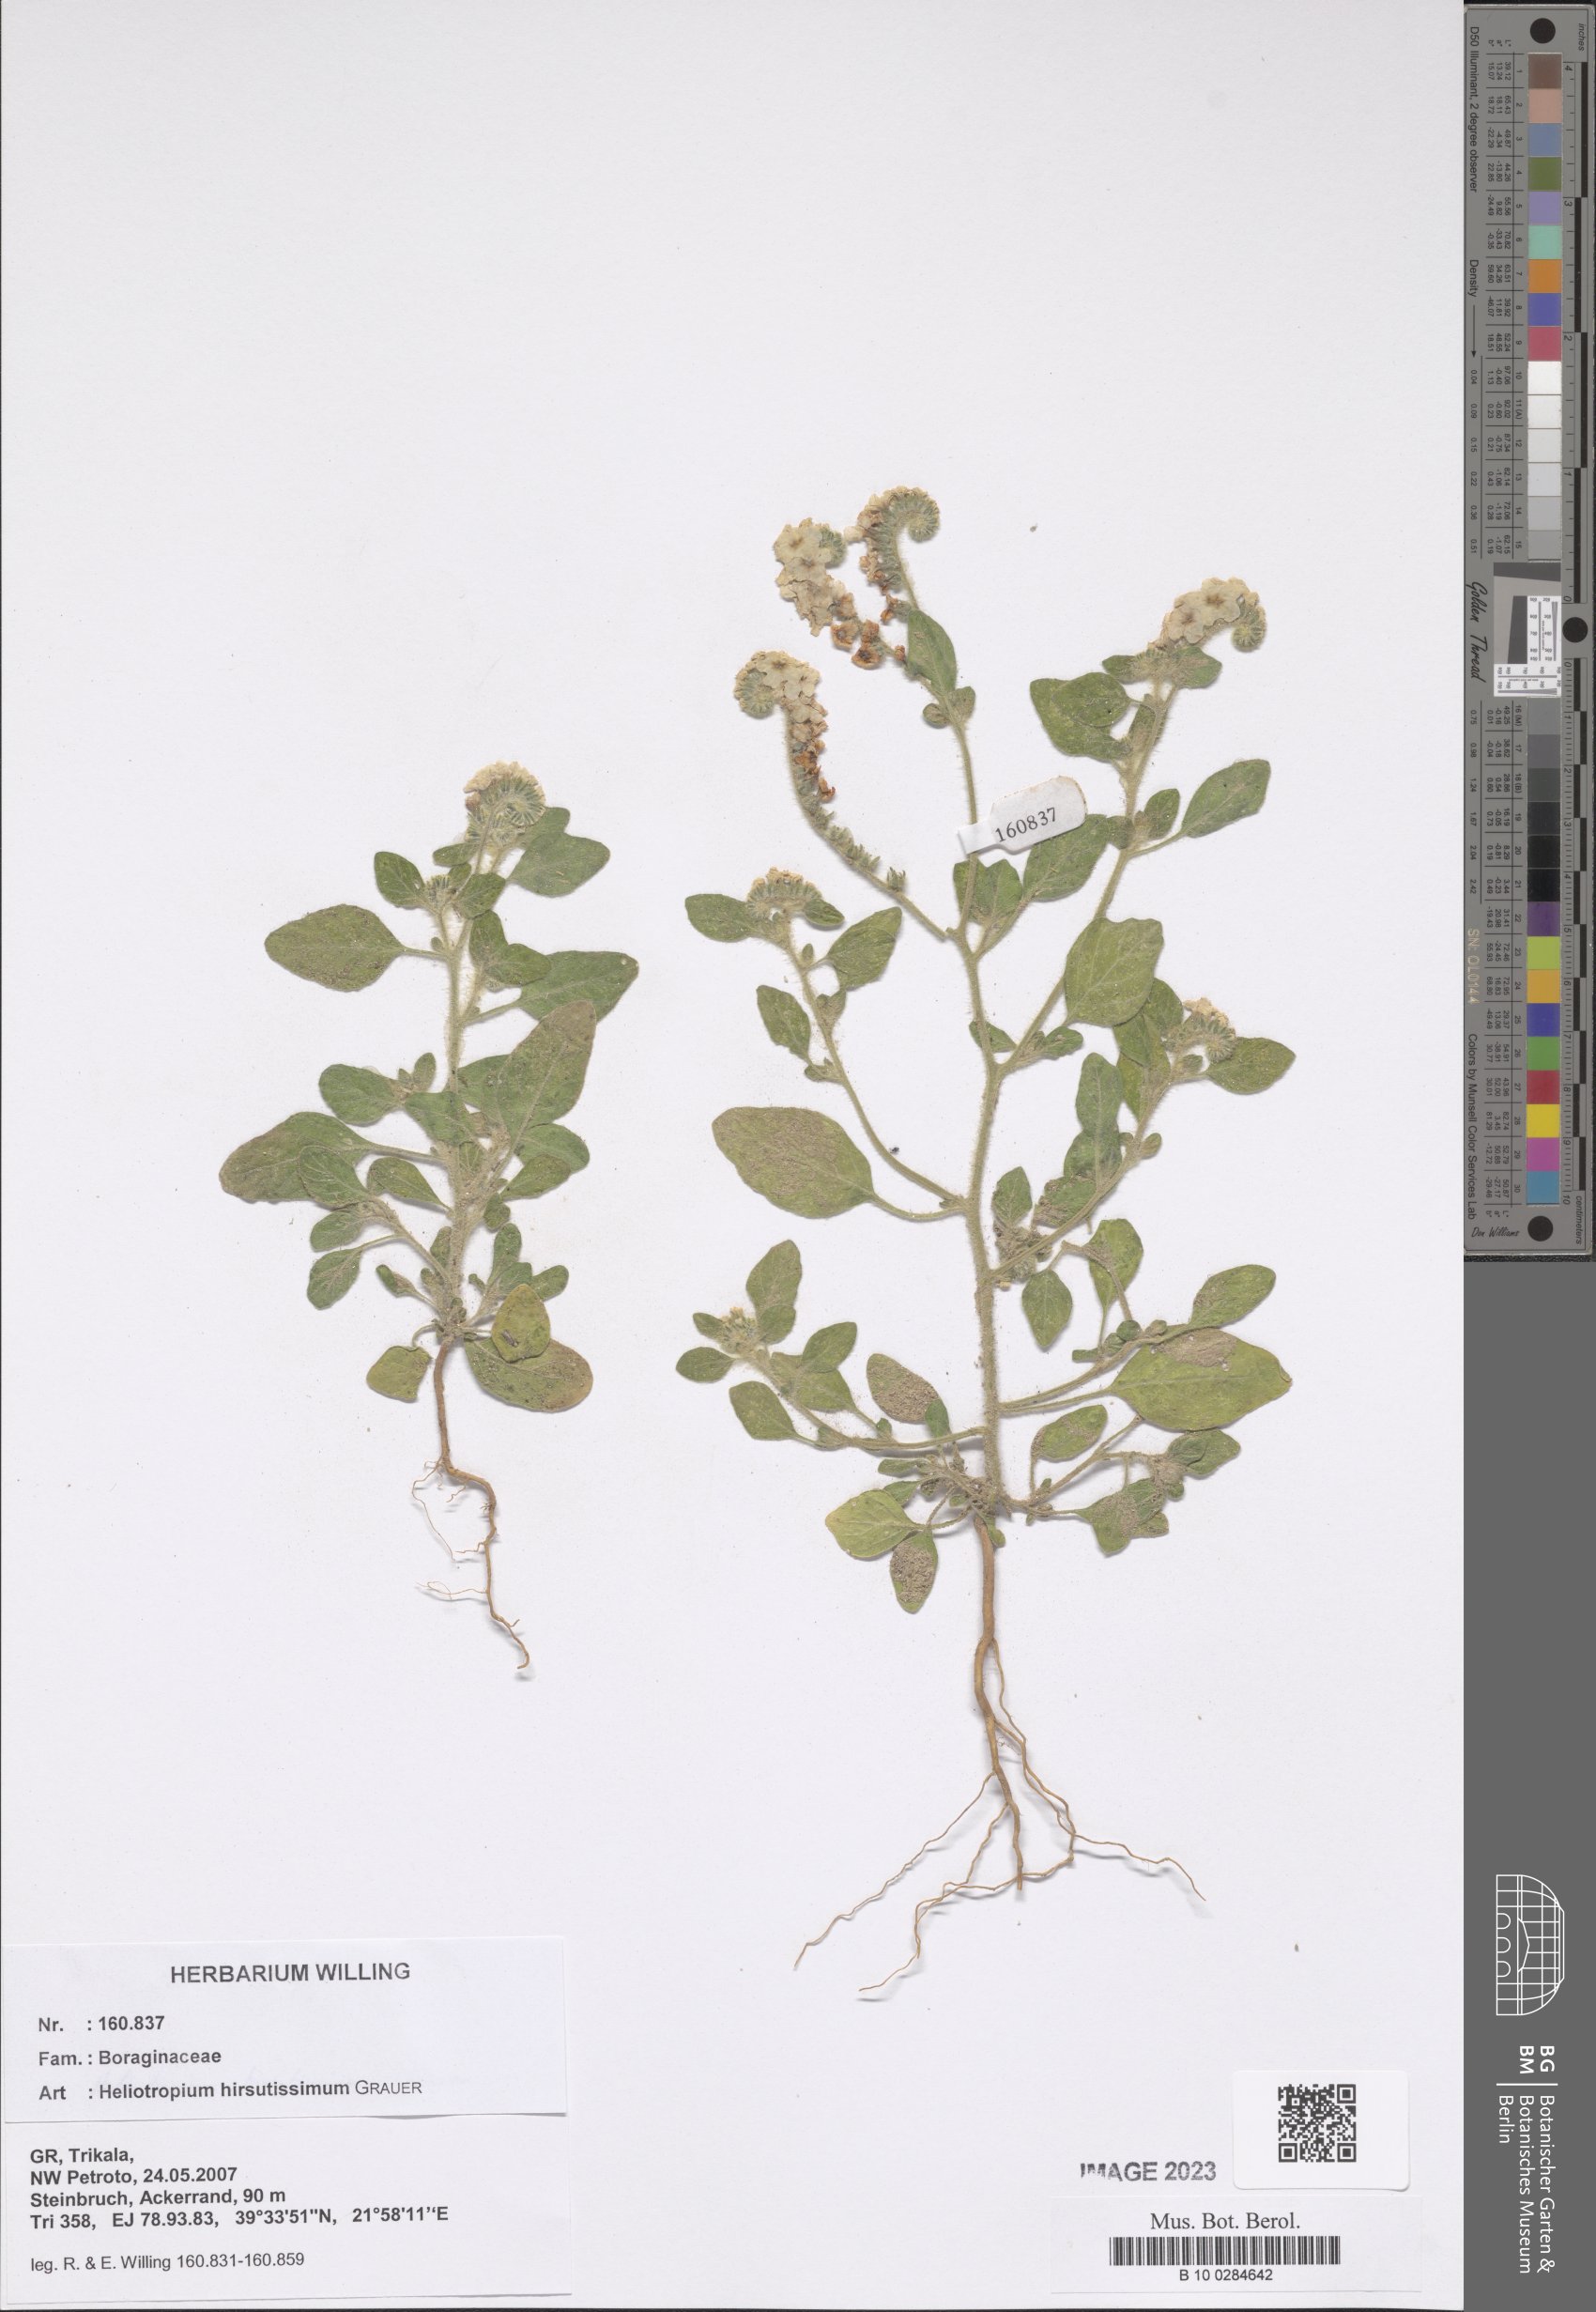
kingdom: Plantae
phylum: Tracheophyta
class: Magnoliopsida
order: Boraginales
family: Heliotropiaceae
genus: Heliotropium
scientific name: Heliotropium hirsutissimum
